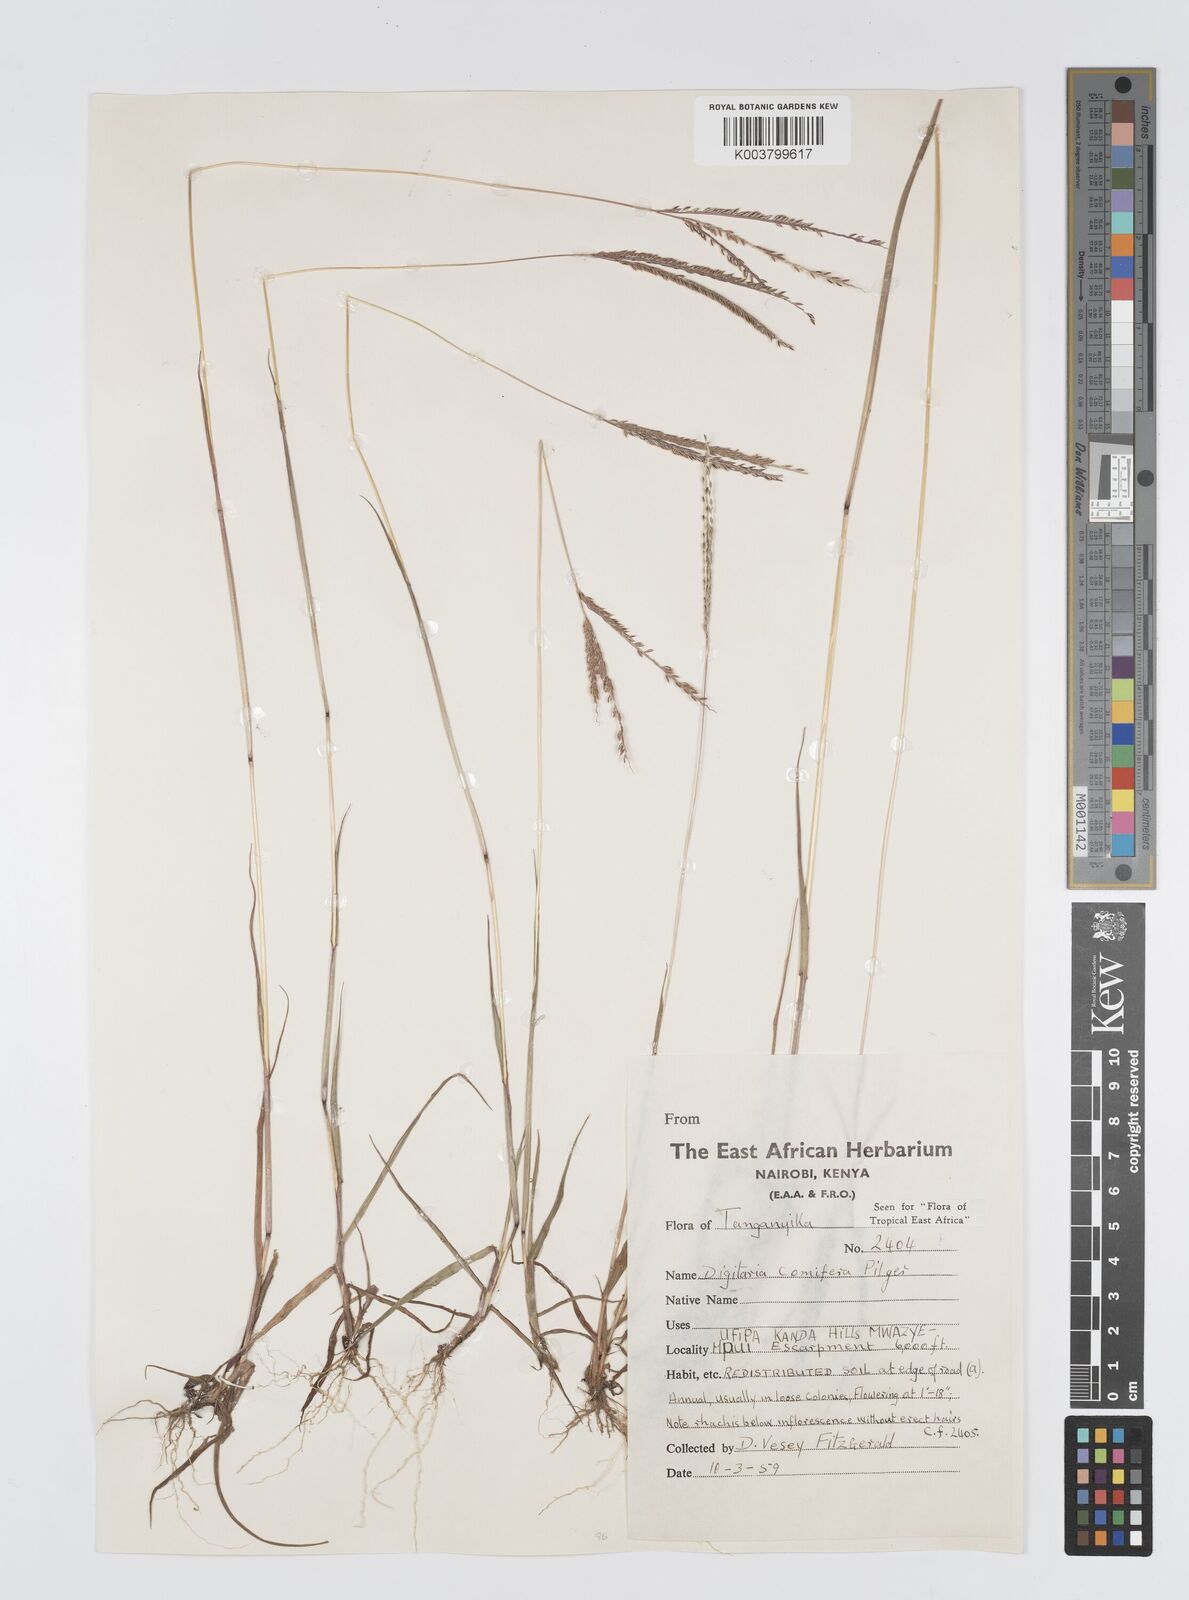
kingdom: Plantae
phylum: Tracheophyta
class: Liliopsida
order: Poales
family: Poaceae
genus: Digitaria
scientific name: Digitaria comifera
